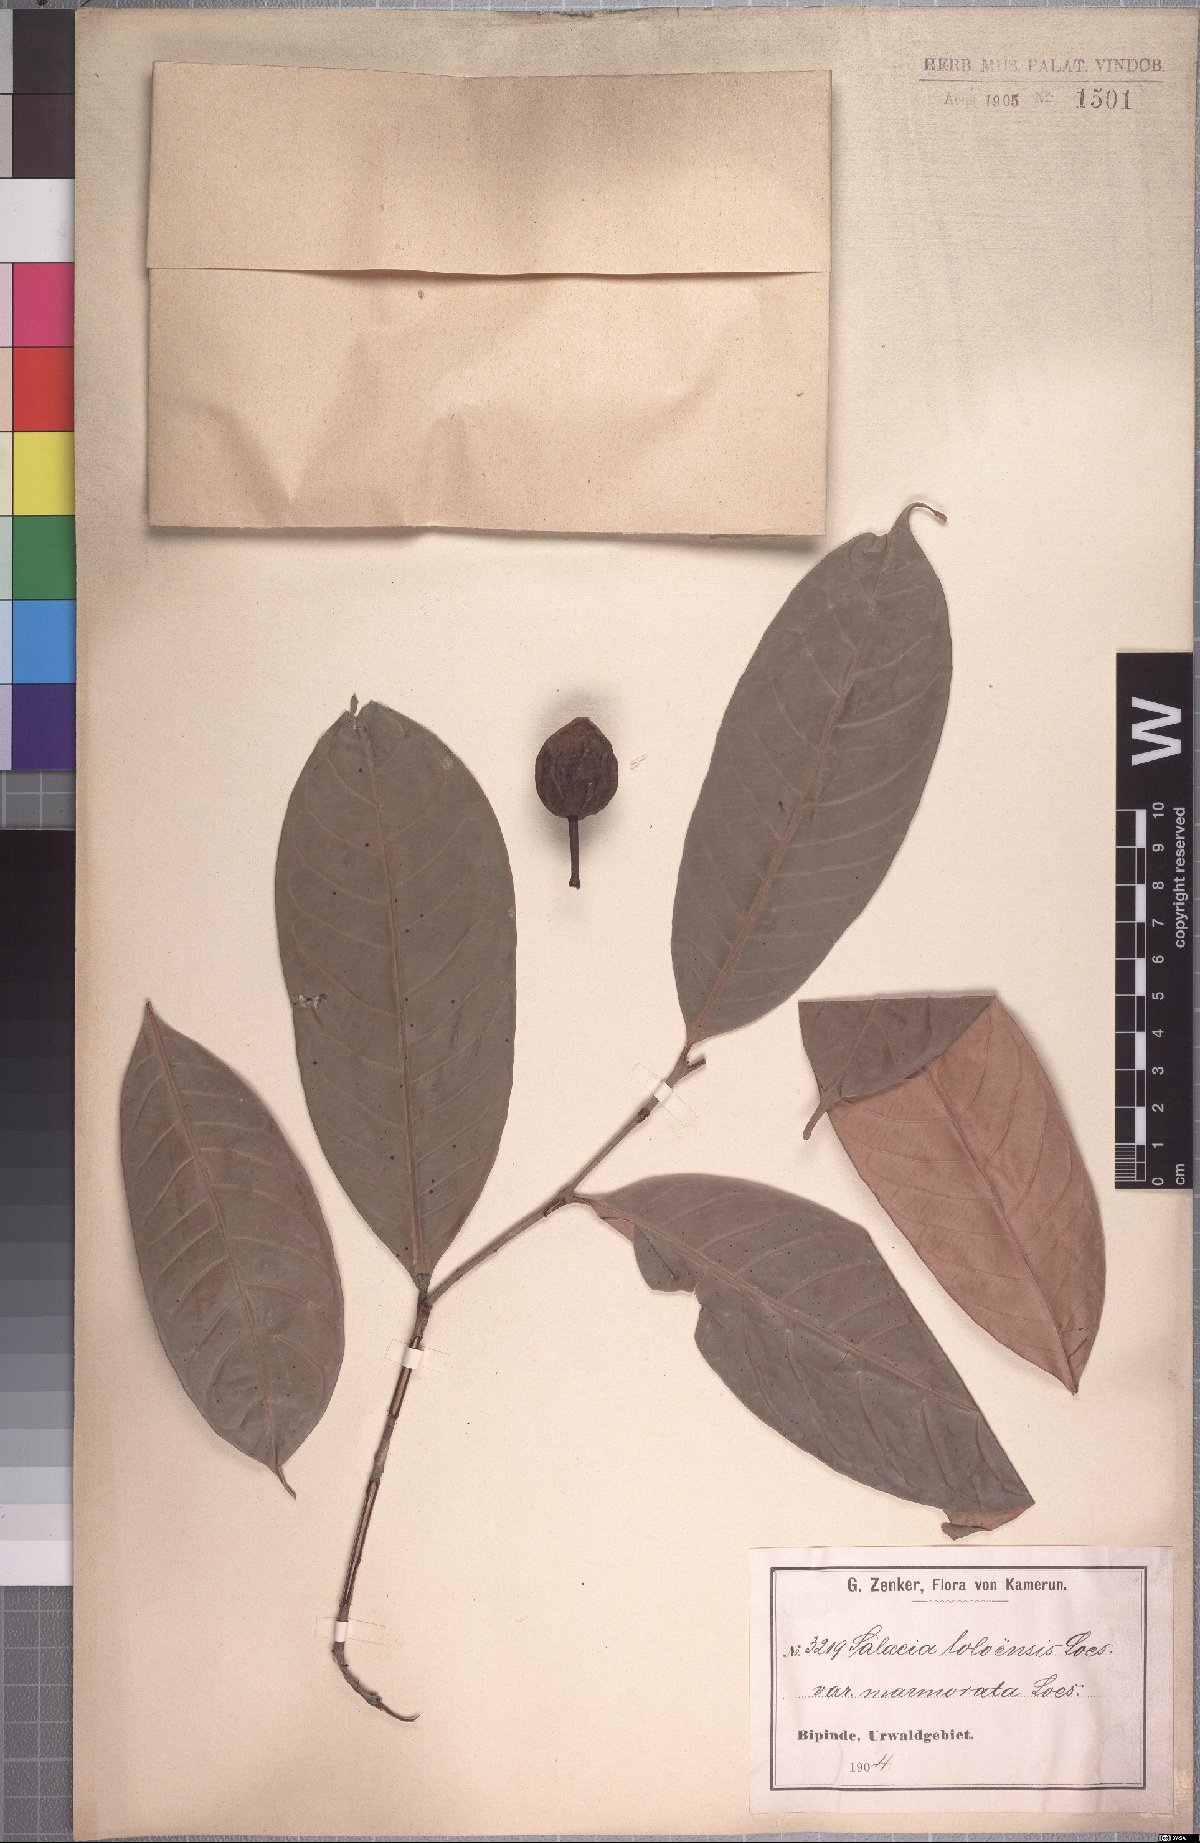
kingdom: Plantae
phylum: Tracheophyta
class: Magnoliopsida
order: Celastrales
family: Celastraceae
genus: Salacia
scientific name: Salacia loloensis
